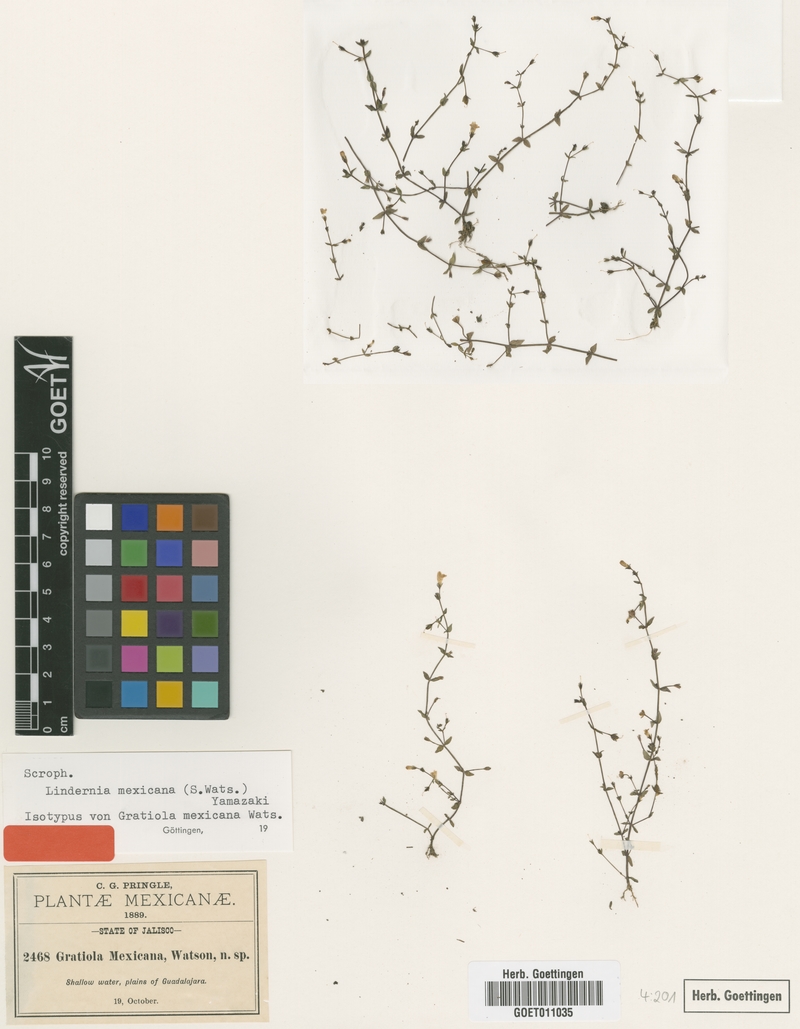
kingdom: Plantae
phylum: Tracheophyta
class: Magnoliopsida
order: Lamiales
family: Linderniaceae
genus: Lindernia
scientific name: Lindernia mexicana
